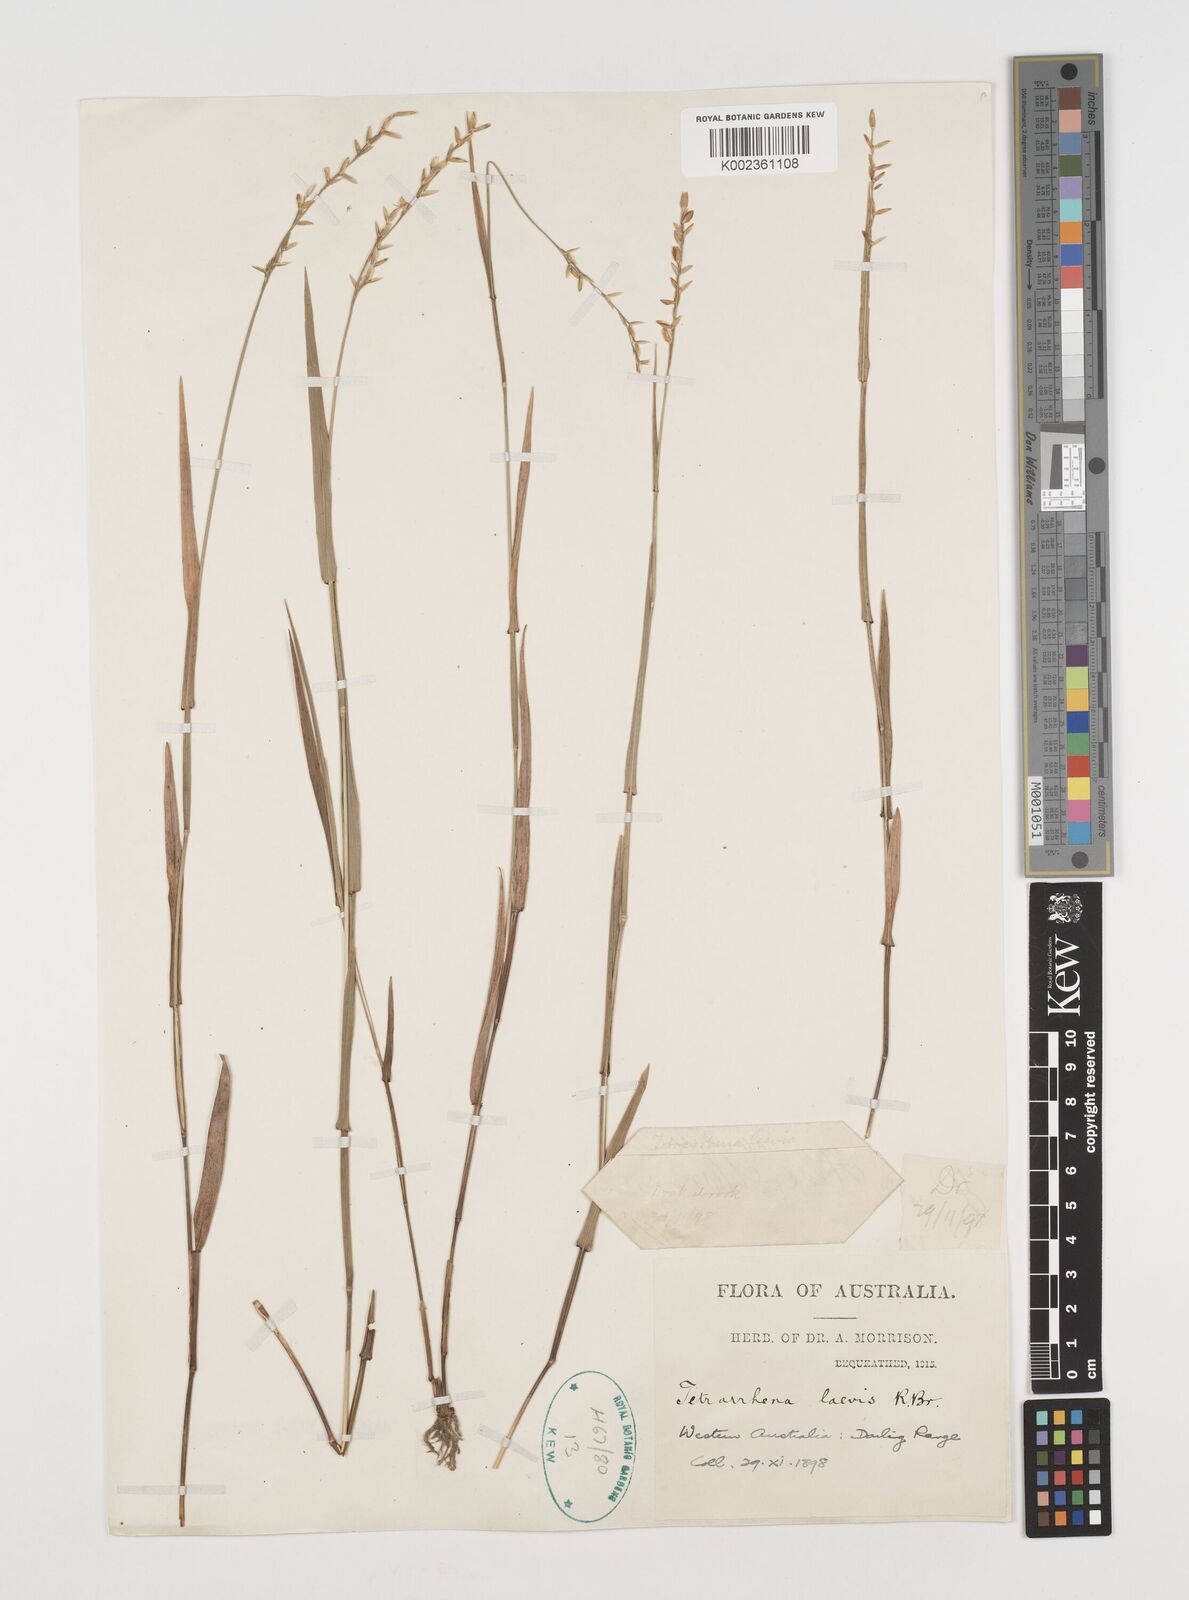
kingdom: Plantae
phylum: Tracheophyta
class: Liliopsida
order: Poales
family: Poaceae
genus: Tetrarrhena
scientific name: Tetrarrhena laevis
